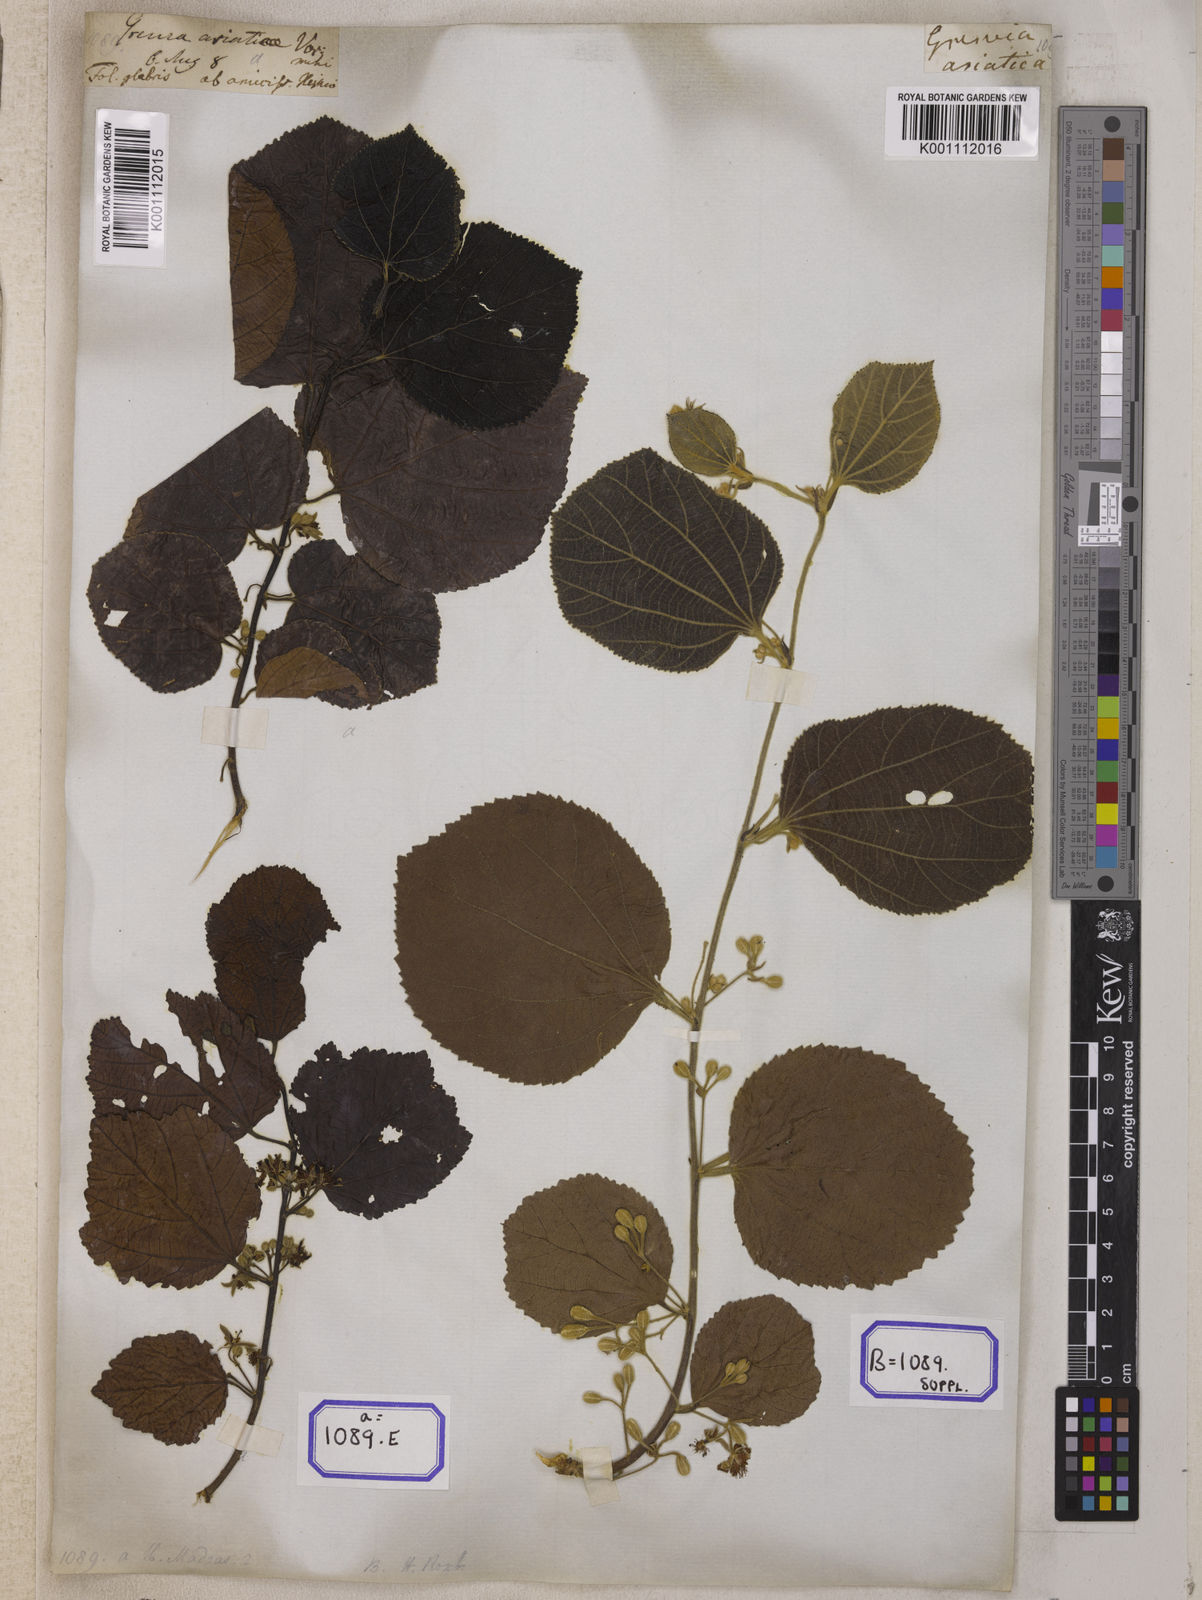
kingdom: Plantae
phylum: Tracheophyta
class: Magnoliopsida
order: Malvales
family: Malvaceae
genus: Grewia
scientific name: Grewia asiatica
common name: Phalsa
